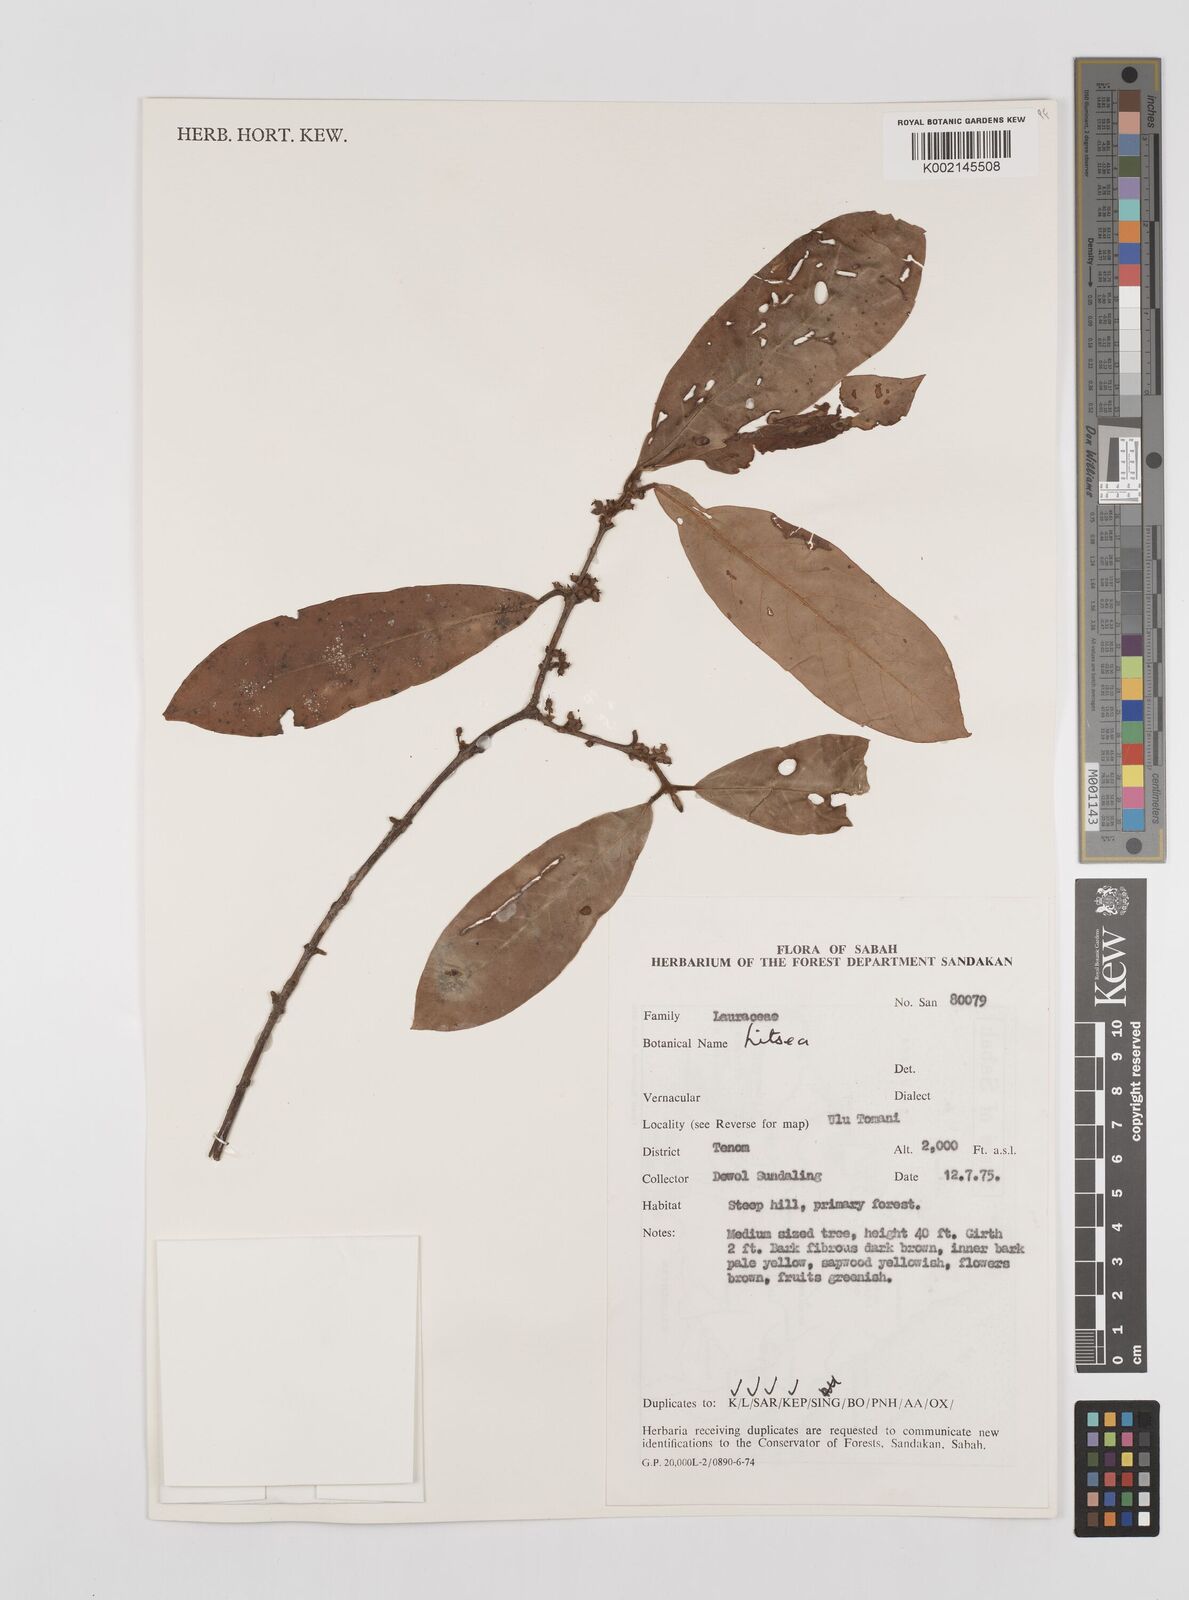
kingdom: Plantae
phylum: Tracheophyta
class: Magnoliopsida
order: Laurales
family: Lauraceae
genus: Litsea
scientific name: Litsea
